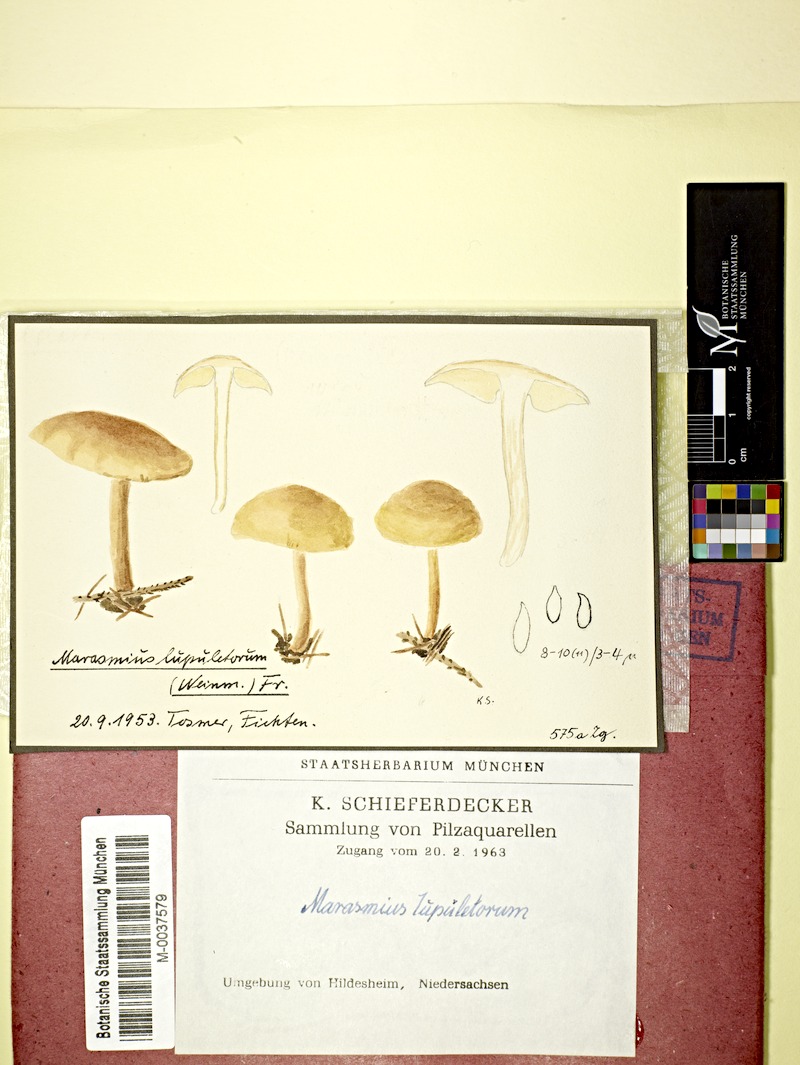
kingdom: Fungi
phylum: Basidiomycota
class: Agaricomycetes
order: Agaricales
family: Omphalotaceae
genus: Gymnopus
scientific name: Gymnopus dryophilus
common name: Penny top
